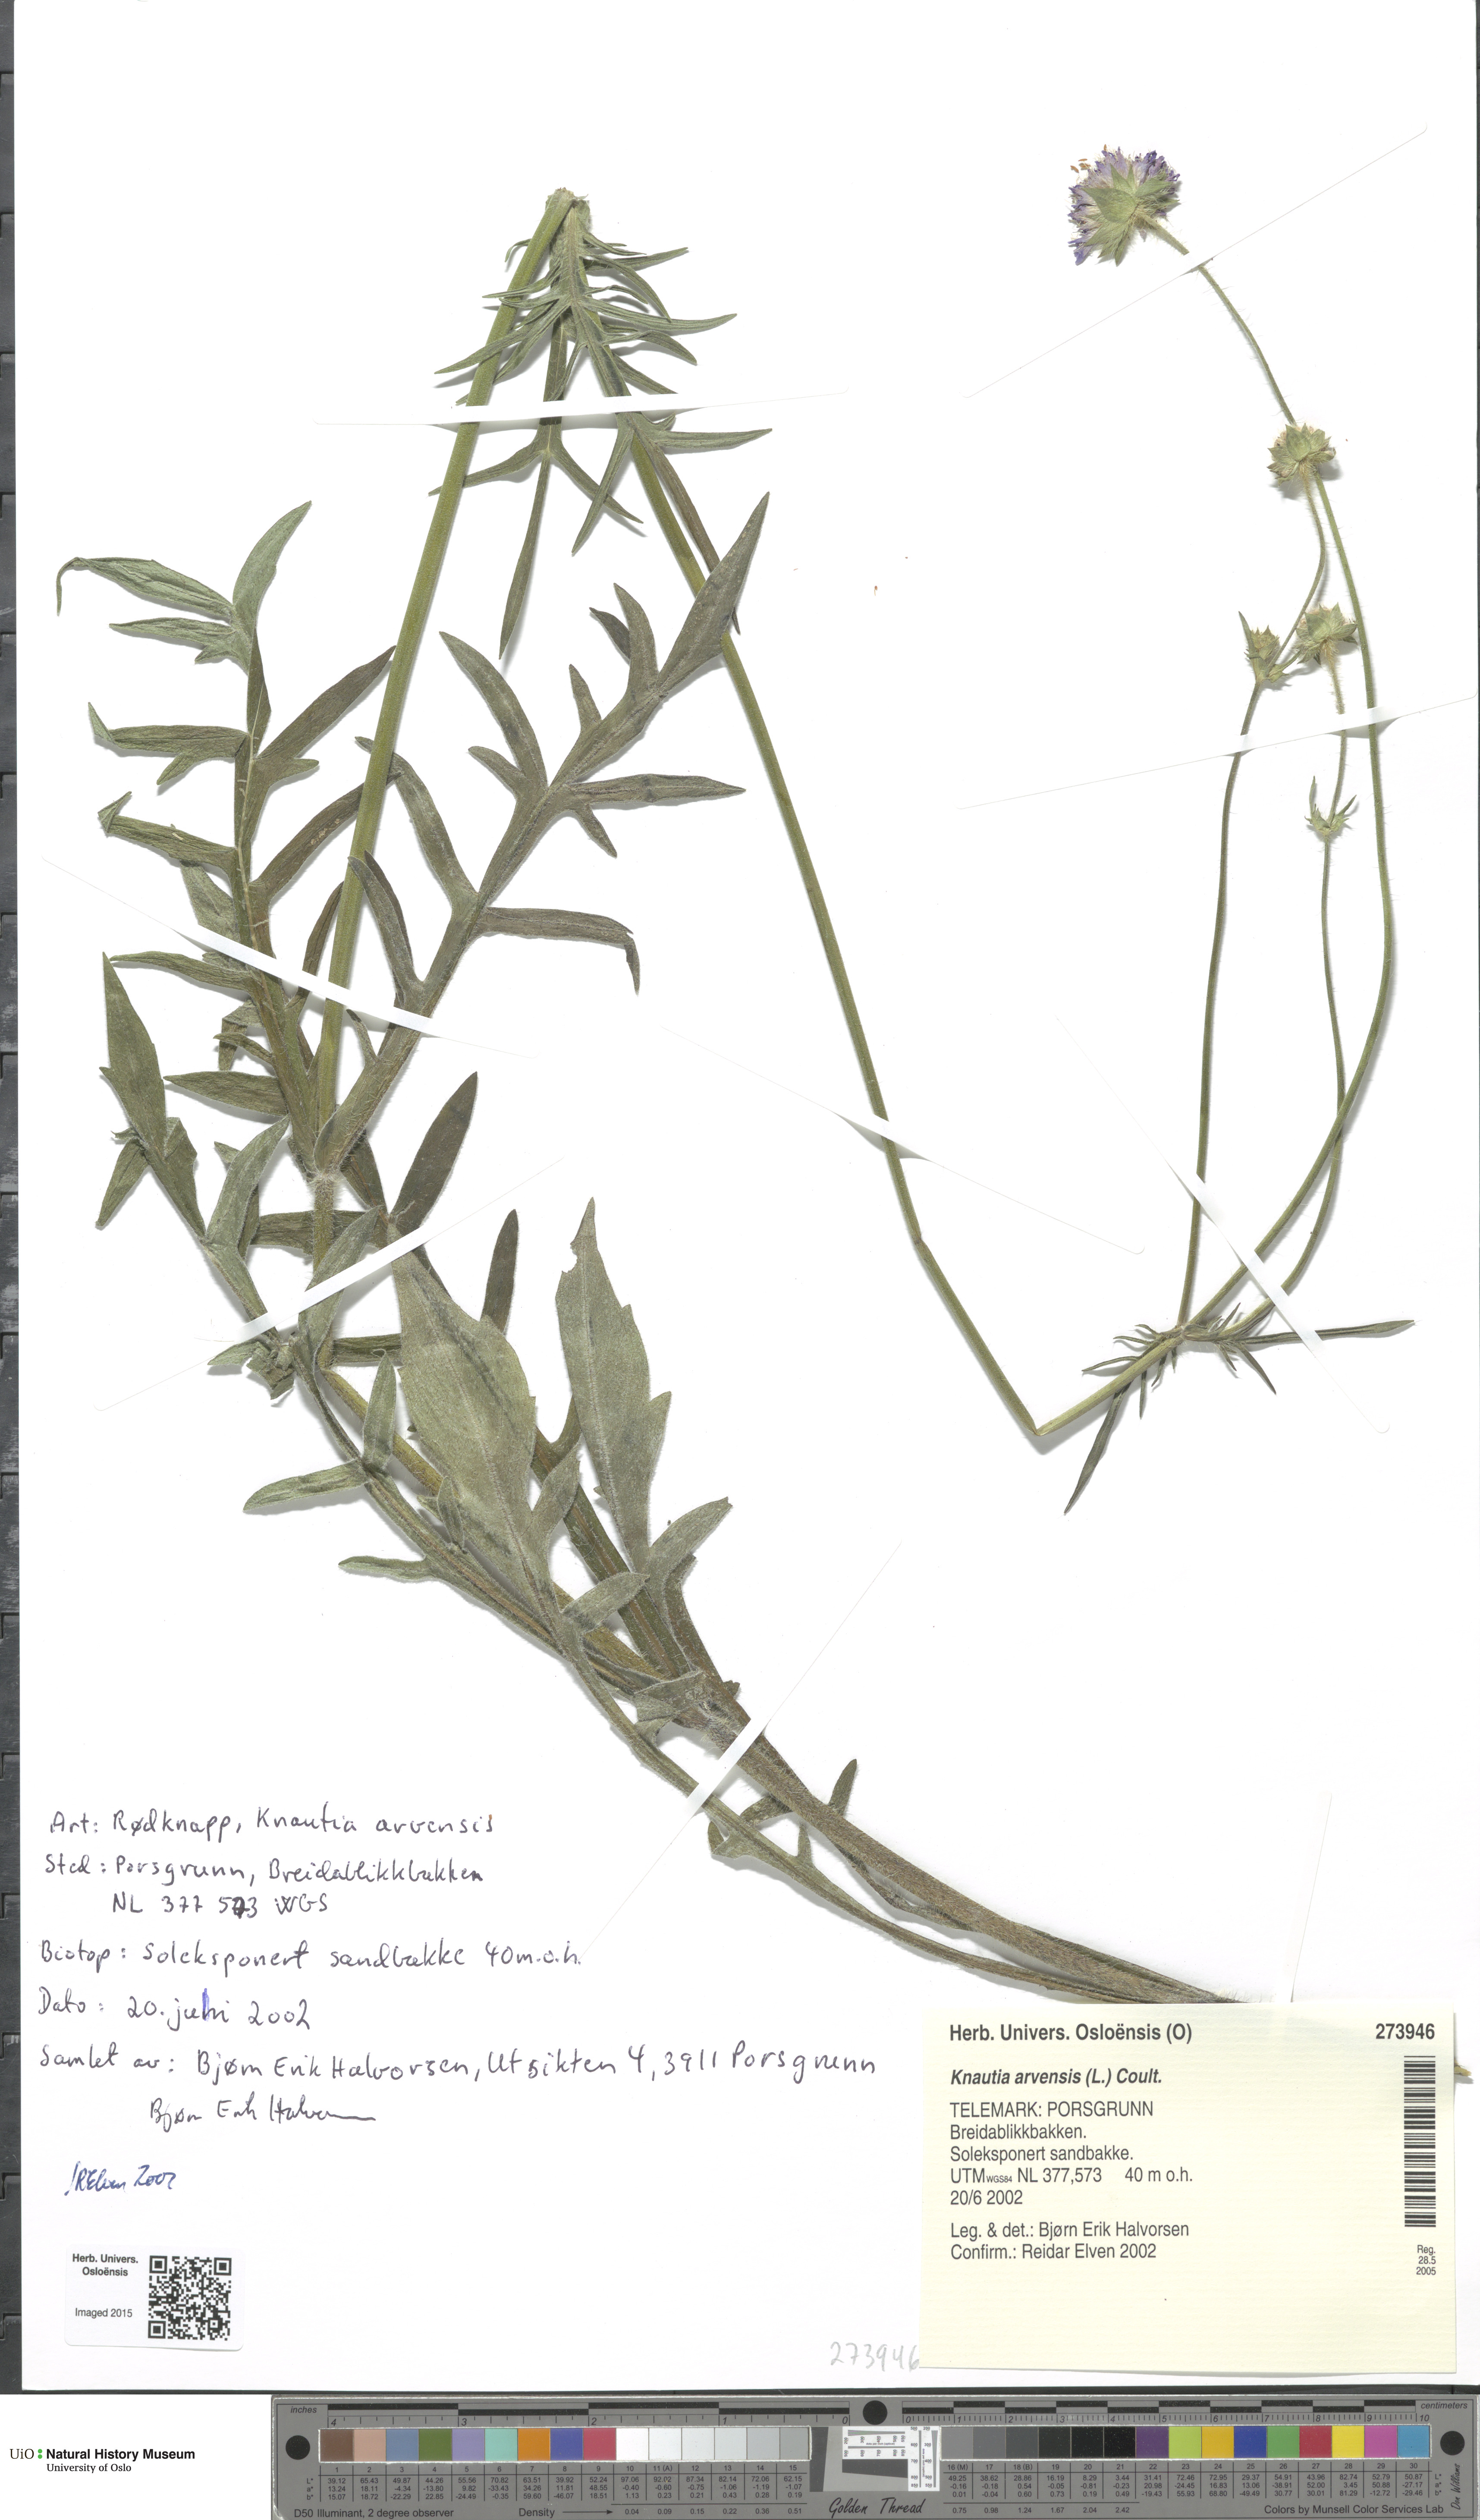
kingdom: Plantae
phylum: Tracheophyta
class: Magnoliopsida
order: Dipsacales
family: Caprifoliaceae
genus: Knautia
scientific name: Knautia arvensis
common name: Field scabiosa
